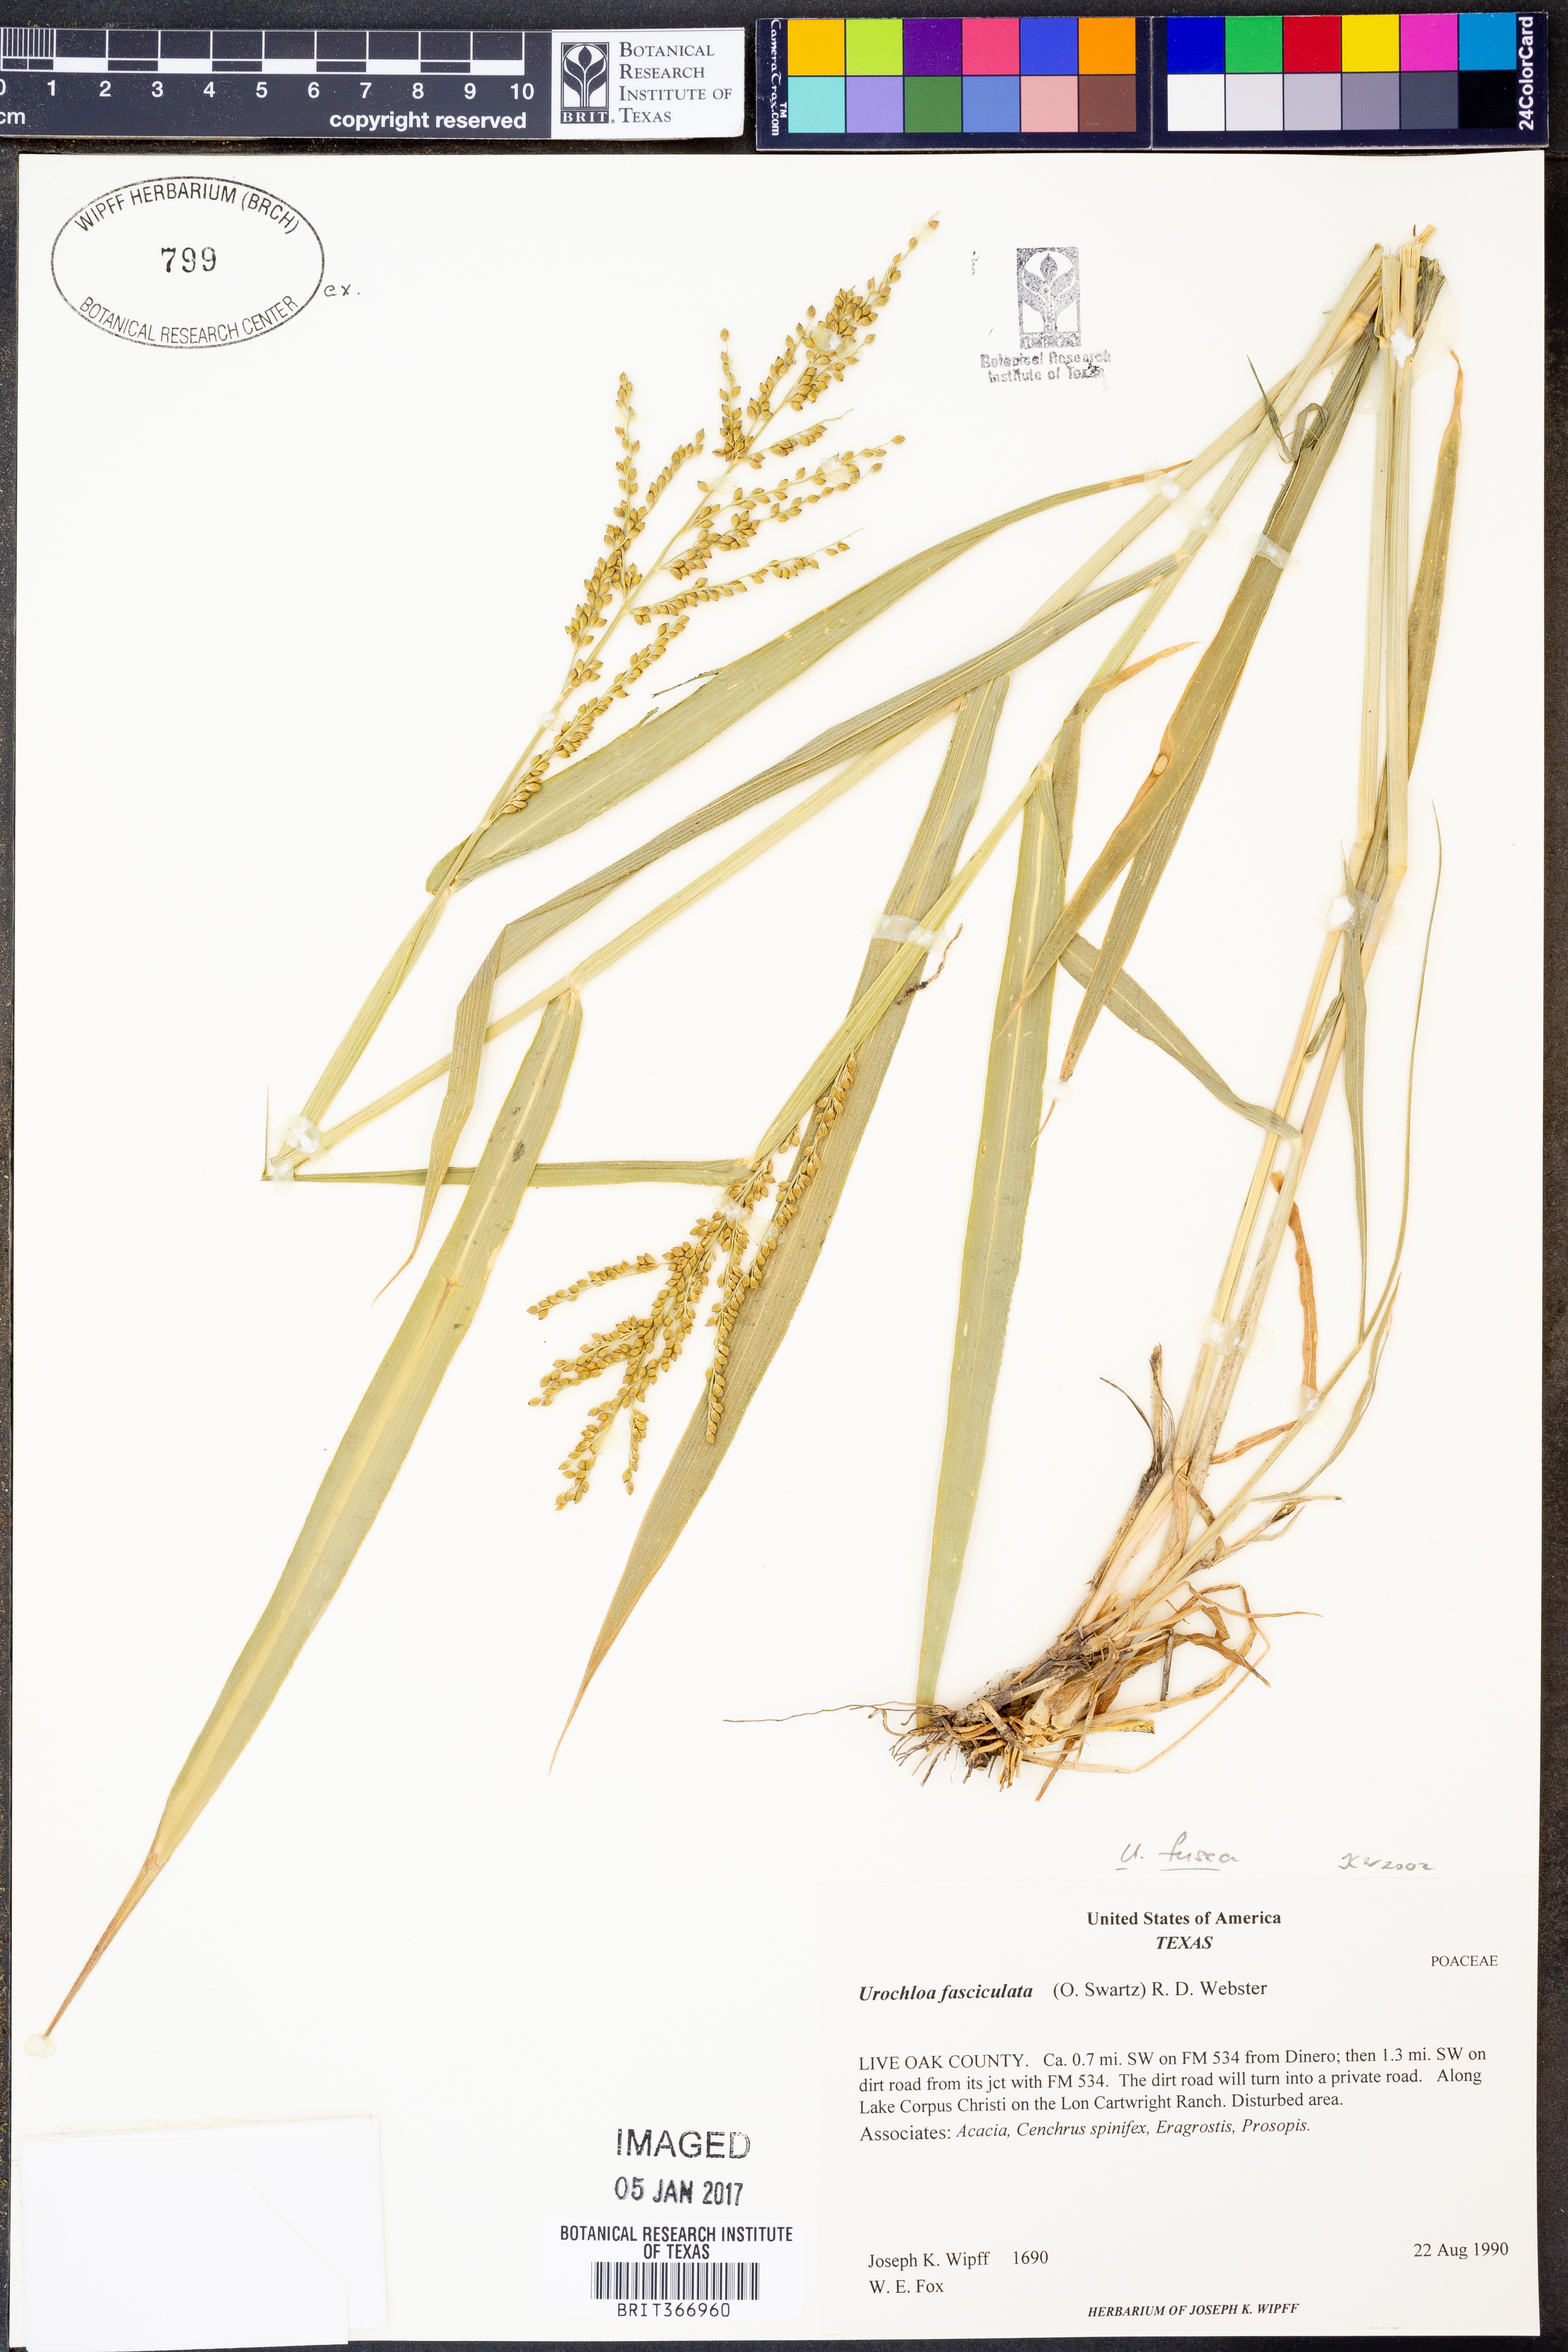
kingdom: Plantae
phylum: Tracheophyta
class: Liliopsida
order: Poales
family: Poaceae
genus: Urochloa
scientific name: Urochloa fusca
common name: Browntop signal grass
